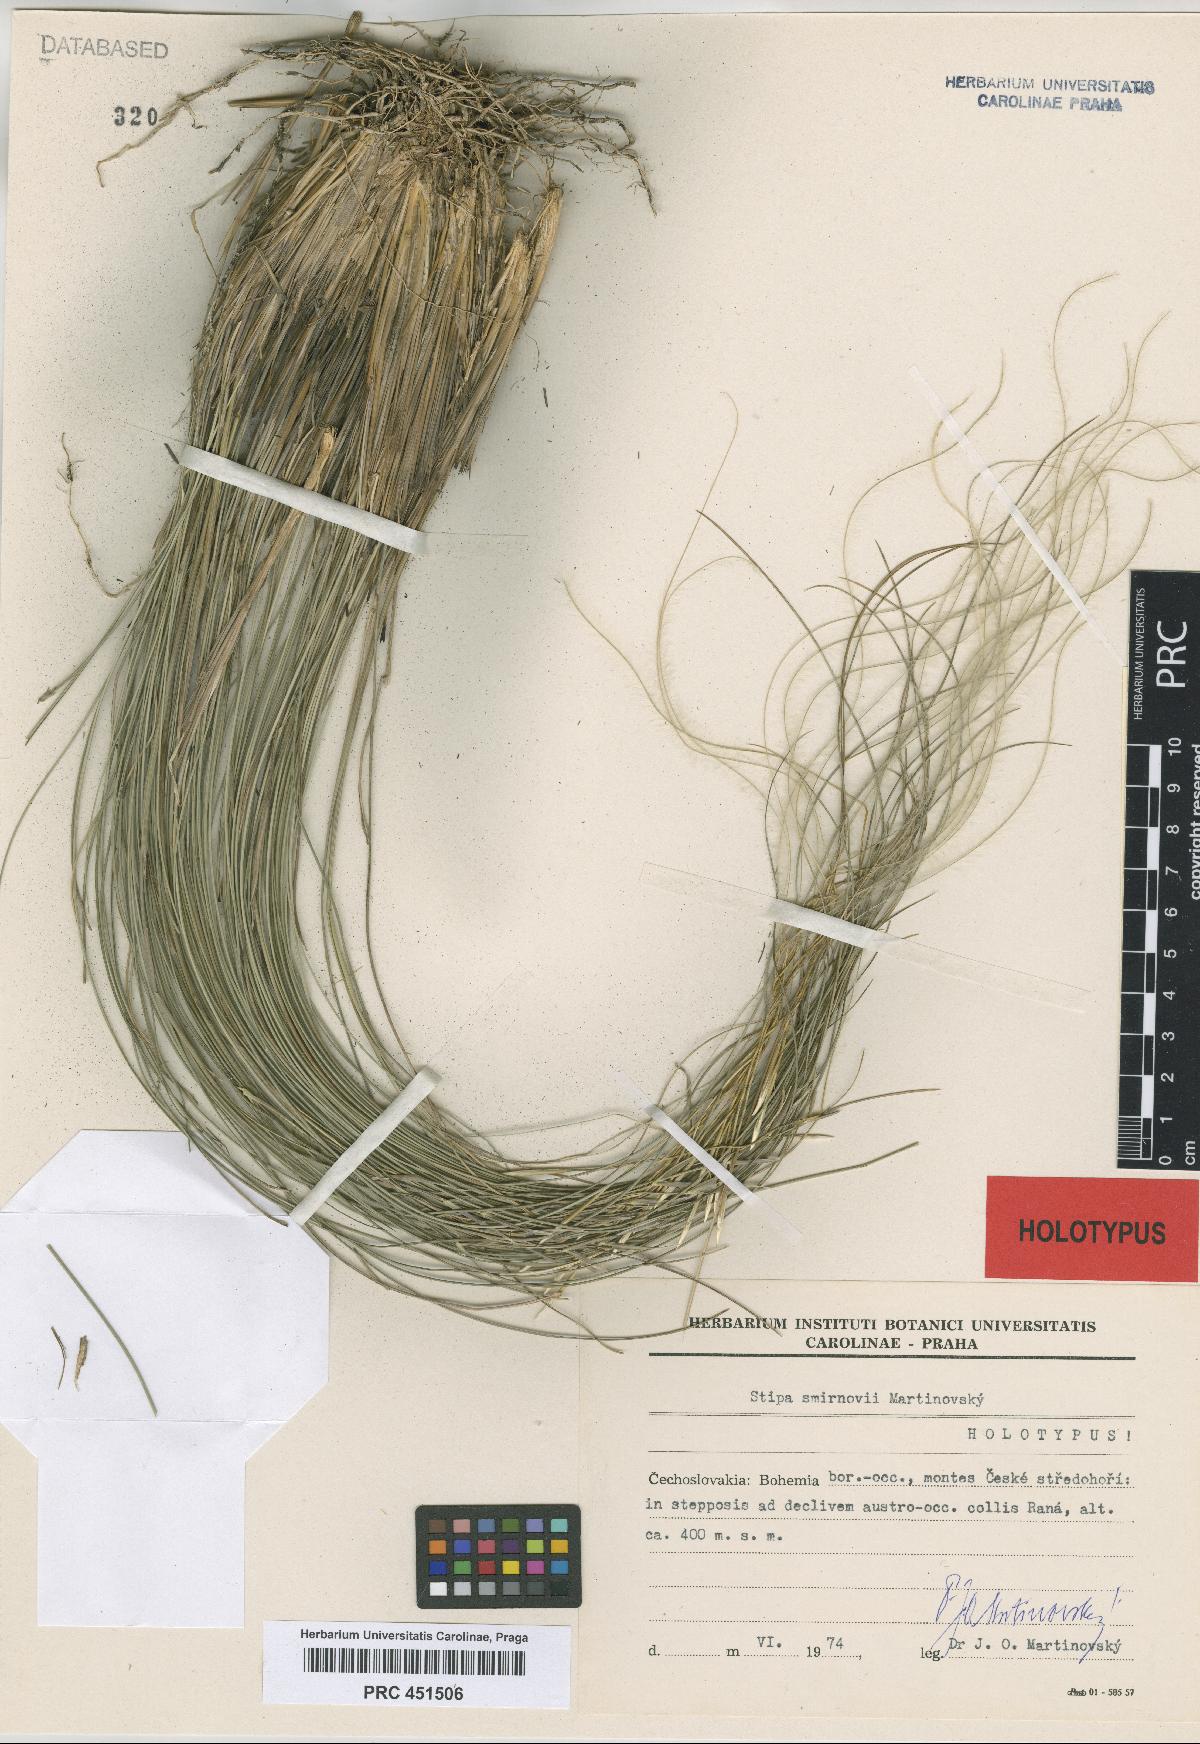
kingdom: Plantae
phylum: Tracheophyta
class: Liliopsida
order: Poales
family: Poaceae
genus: Stipa
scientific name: Stipa zalesskyi
